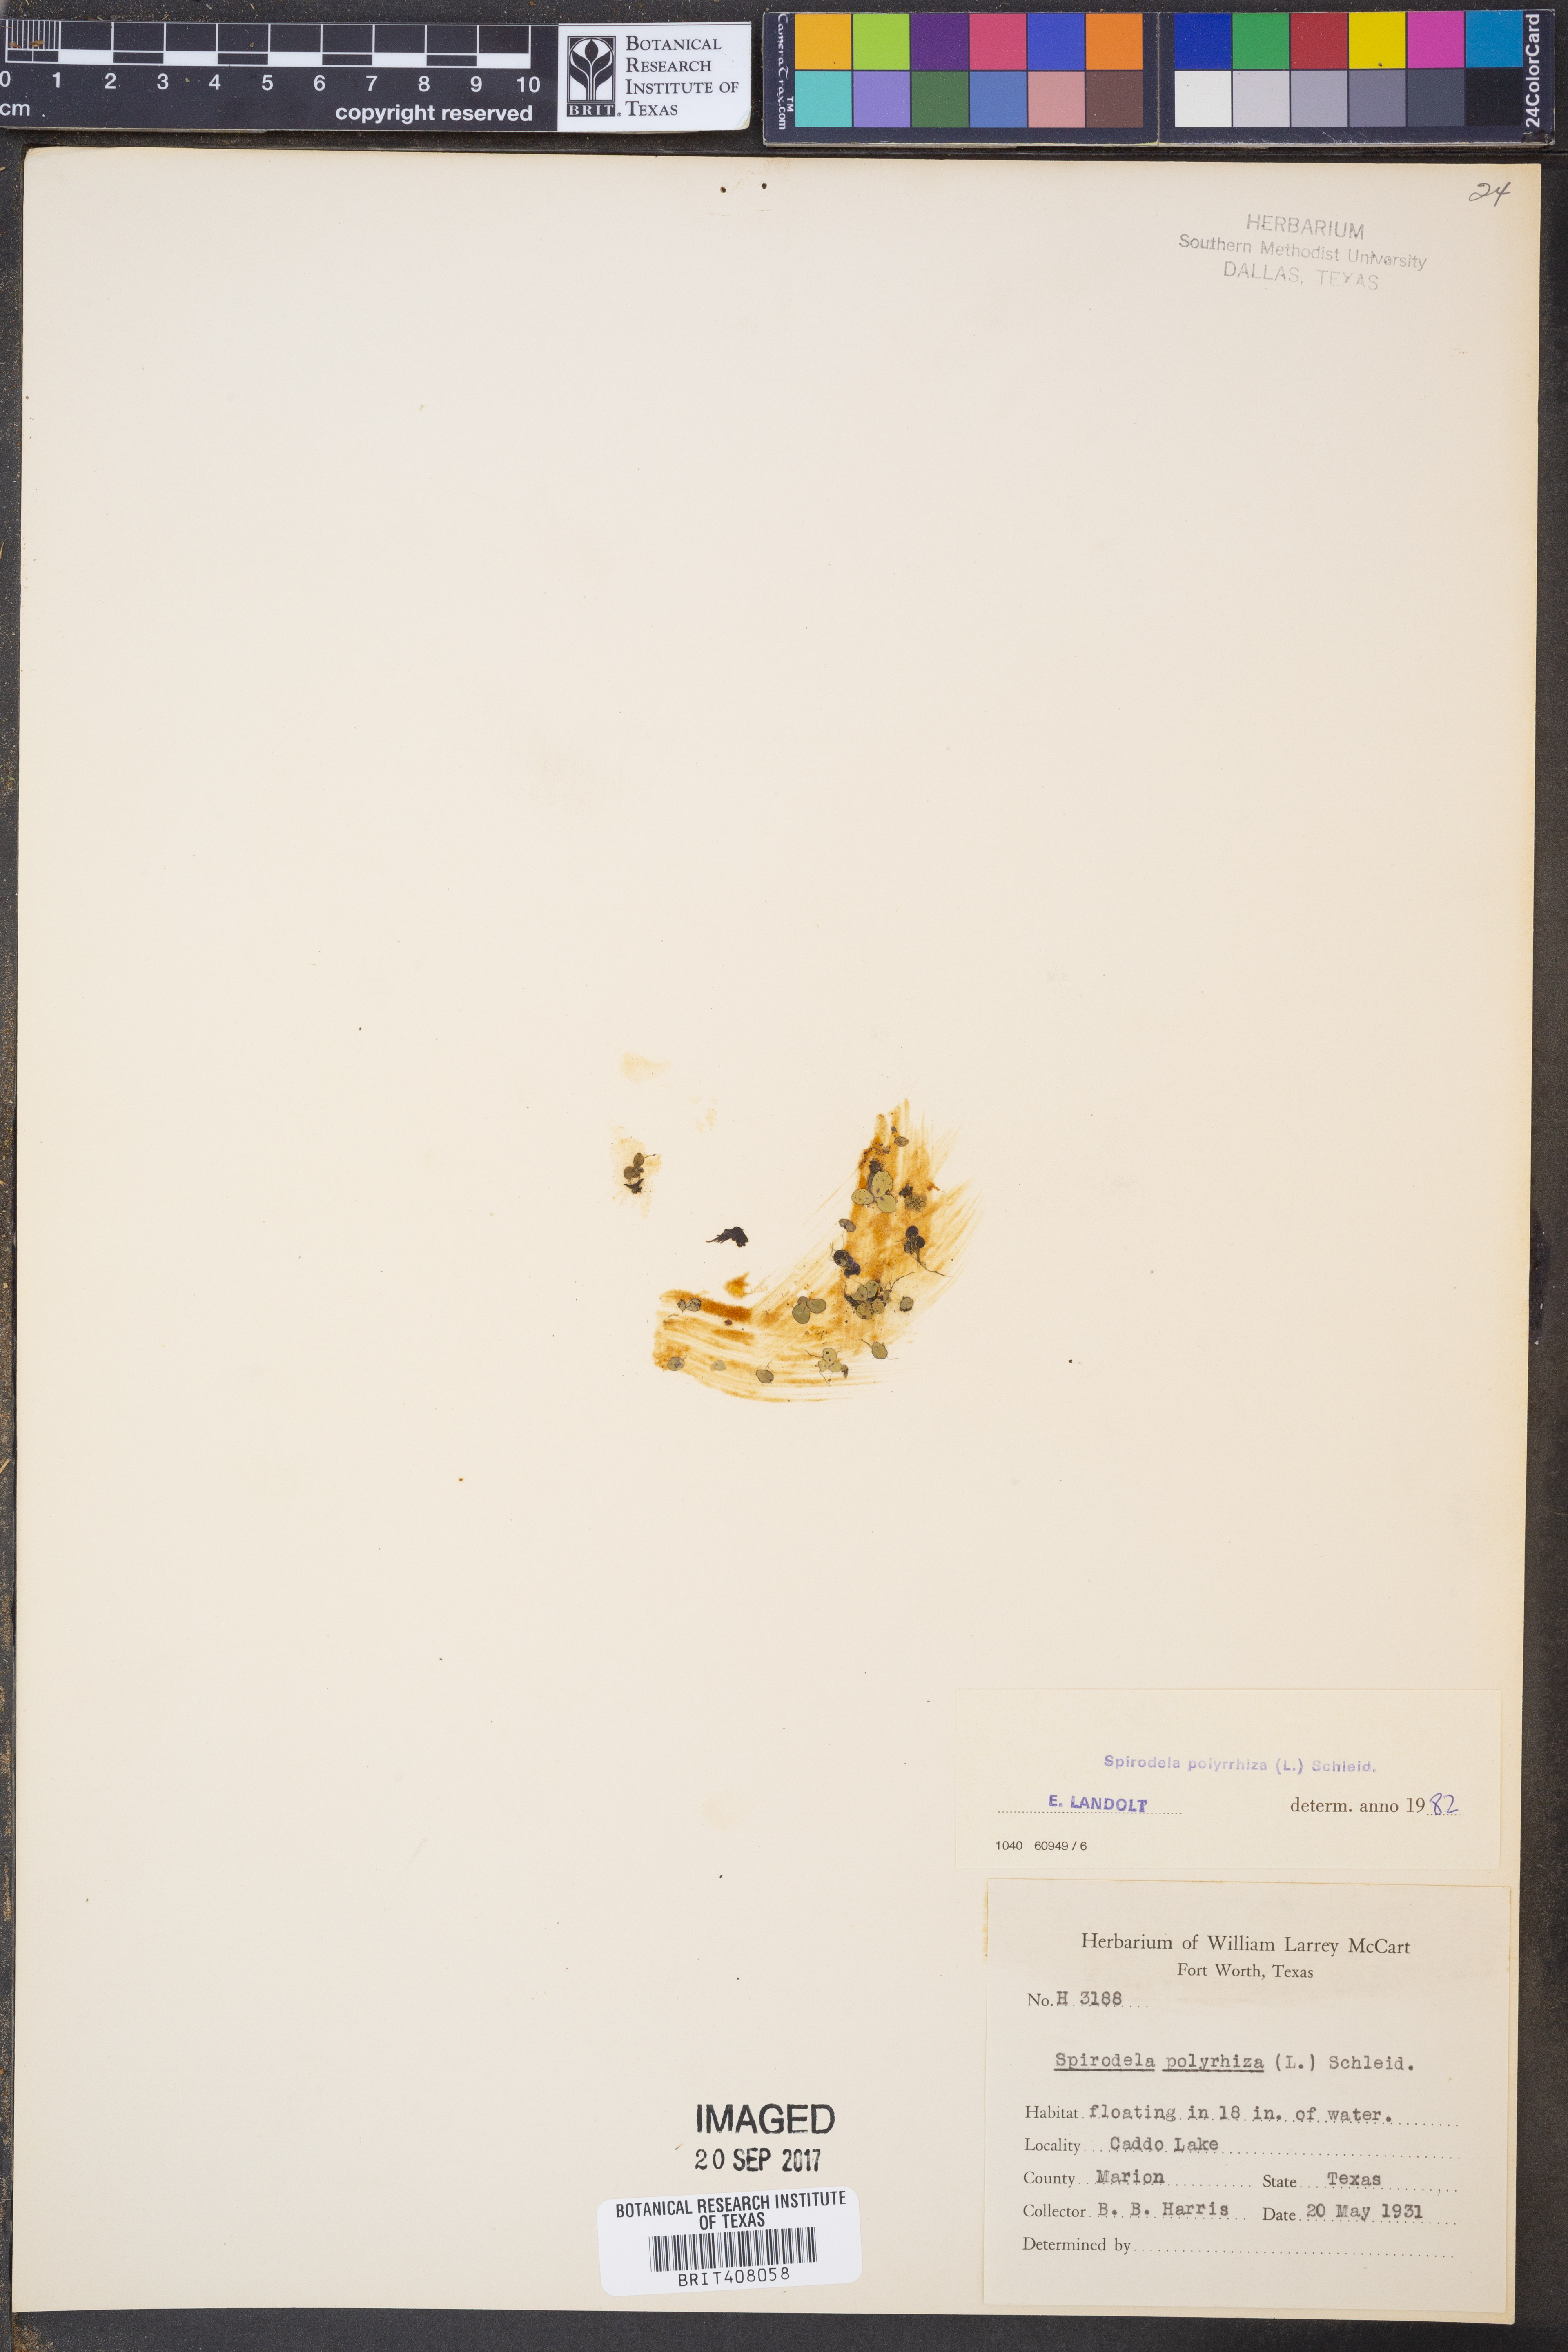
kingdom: Plantae
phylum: Tracheophyta
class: Liliopsida
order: Alismatales
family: Araceae
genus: Spirodela
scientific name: Spirodela polyrhiza
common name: Great duckweed
